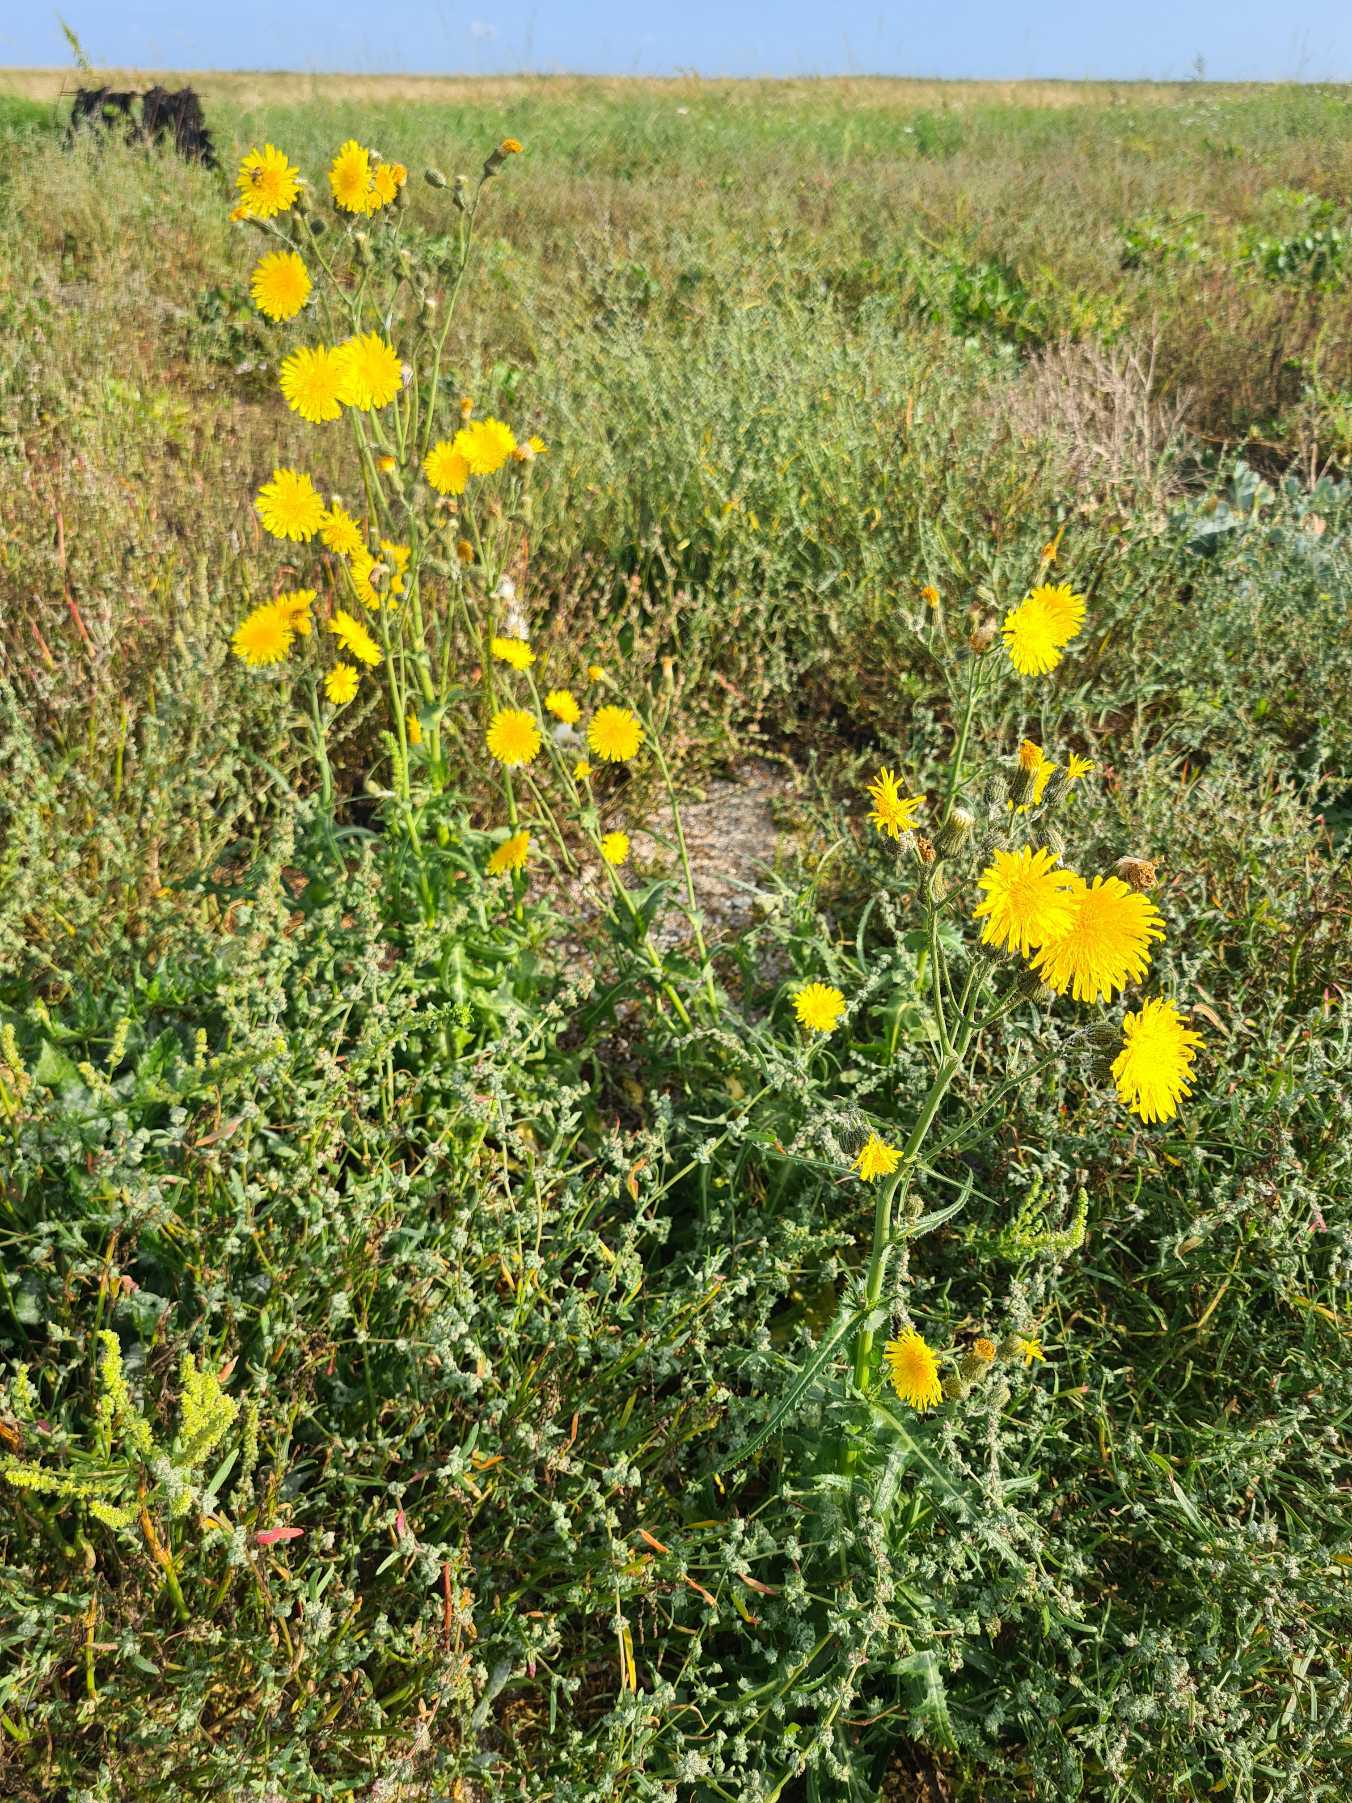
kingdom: Plantae
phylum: Tracheophyta
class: Magnoliopsida
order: Asterales
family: Asteraceae
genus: Sonchus
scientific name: Sonchus arvensis
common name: Ager-svinemælk
